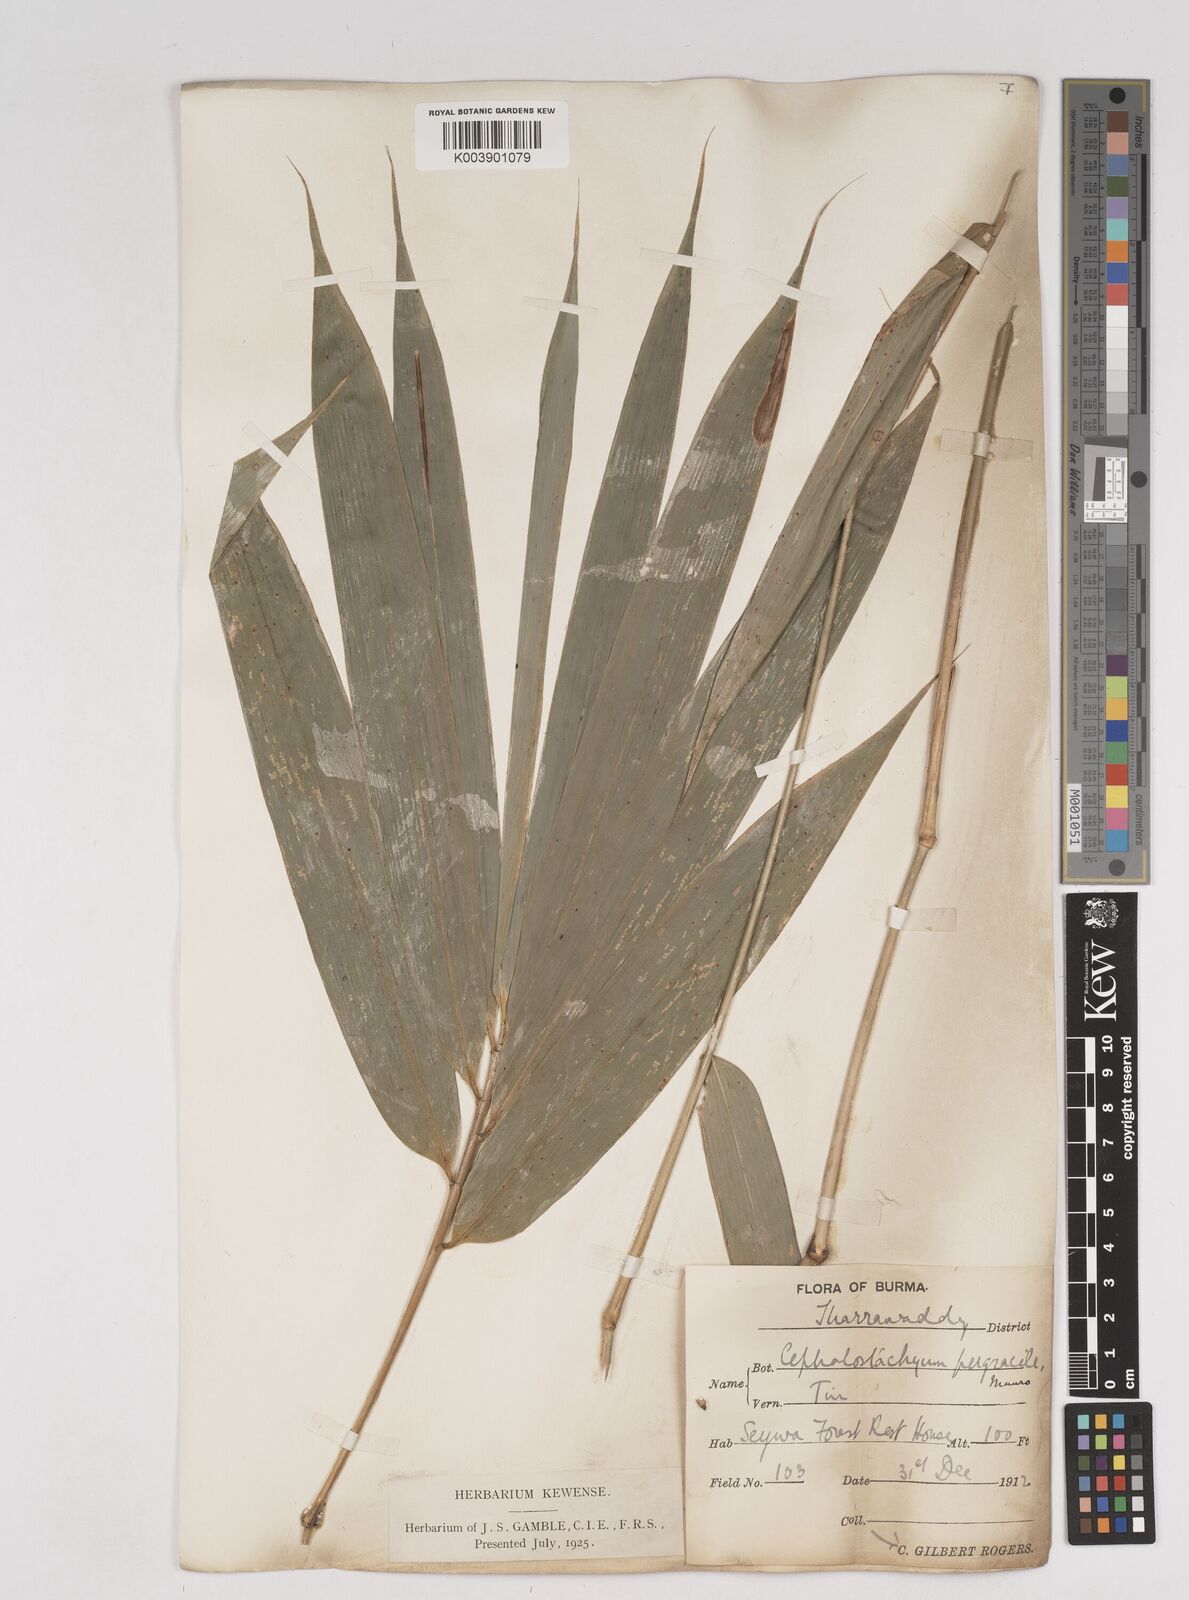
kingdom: Plantae
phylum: Tracheophyta
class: Liliopsida
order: Poales
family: Poaceae
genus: Schizostachyum
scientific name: Schizostachyum pergracile
